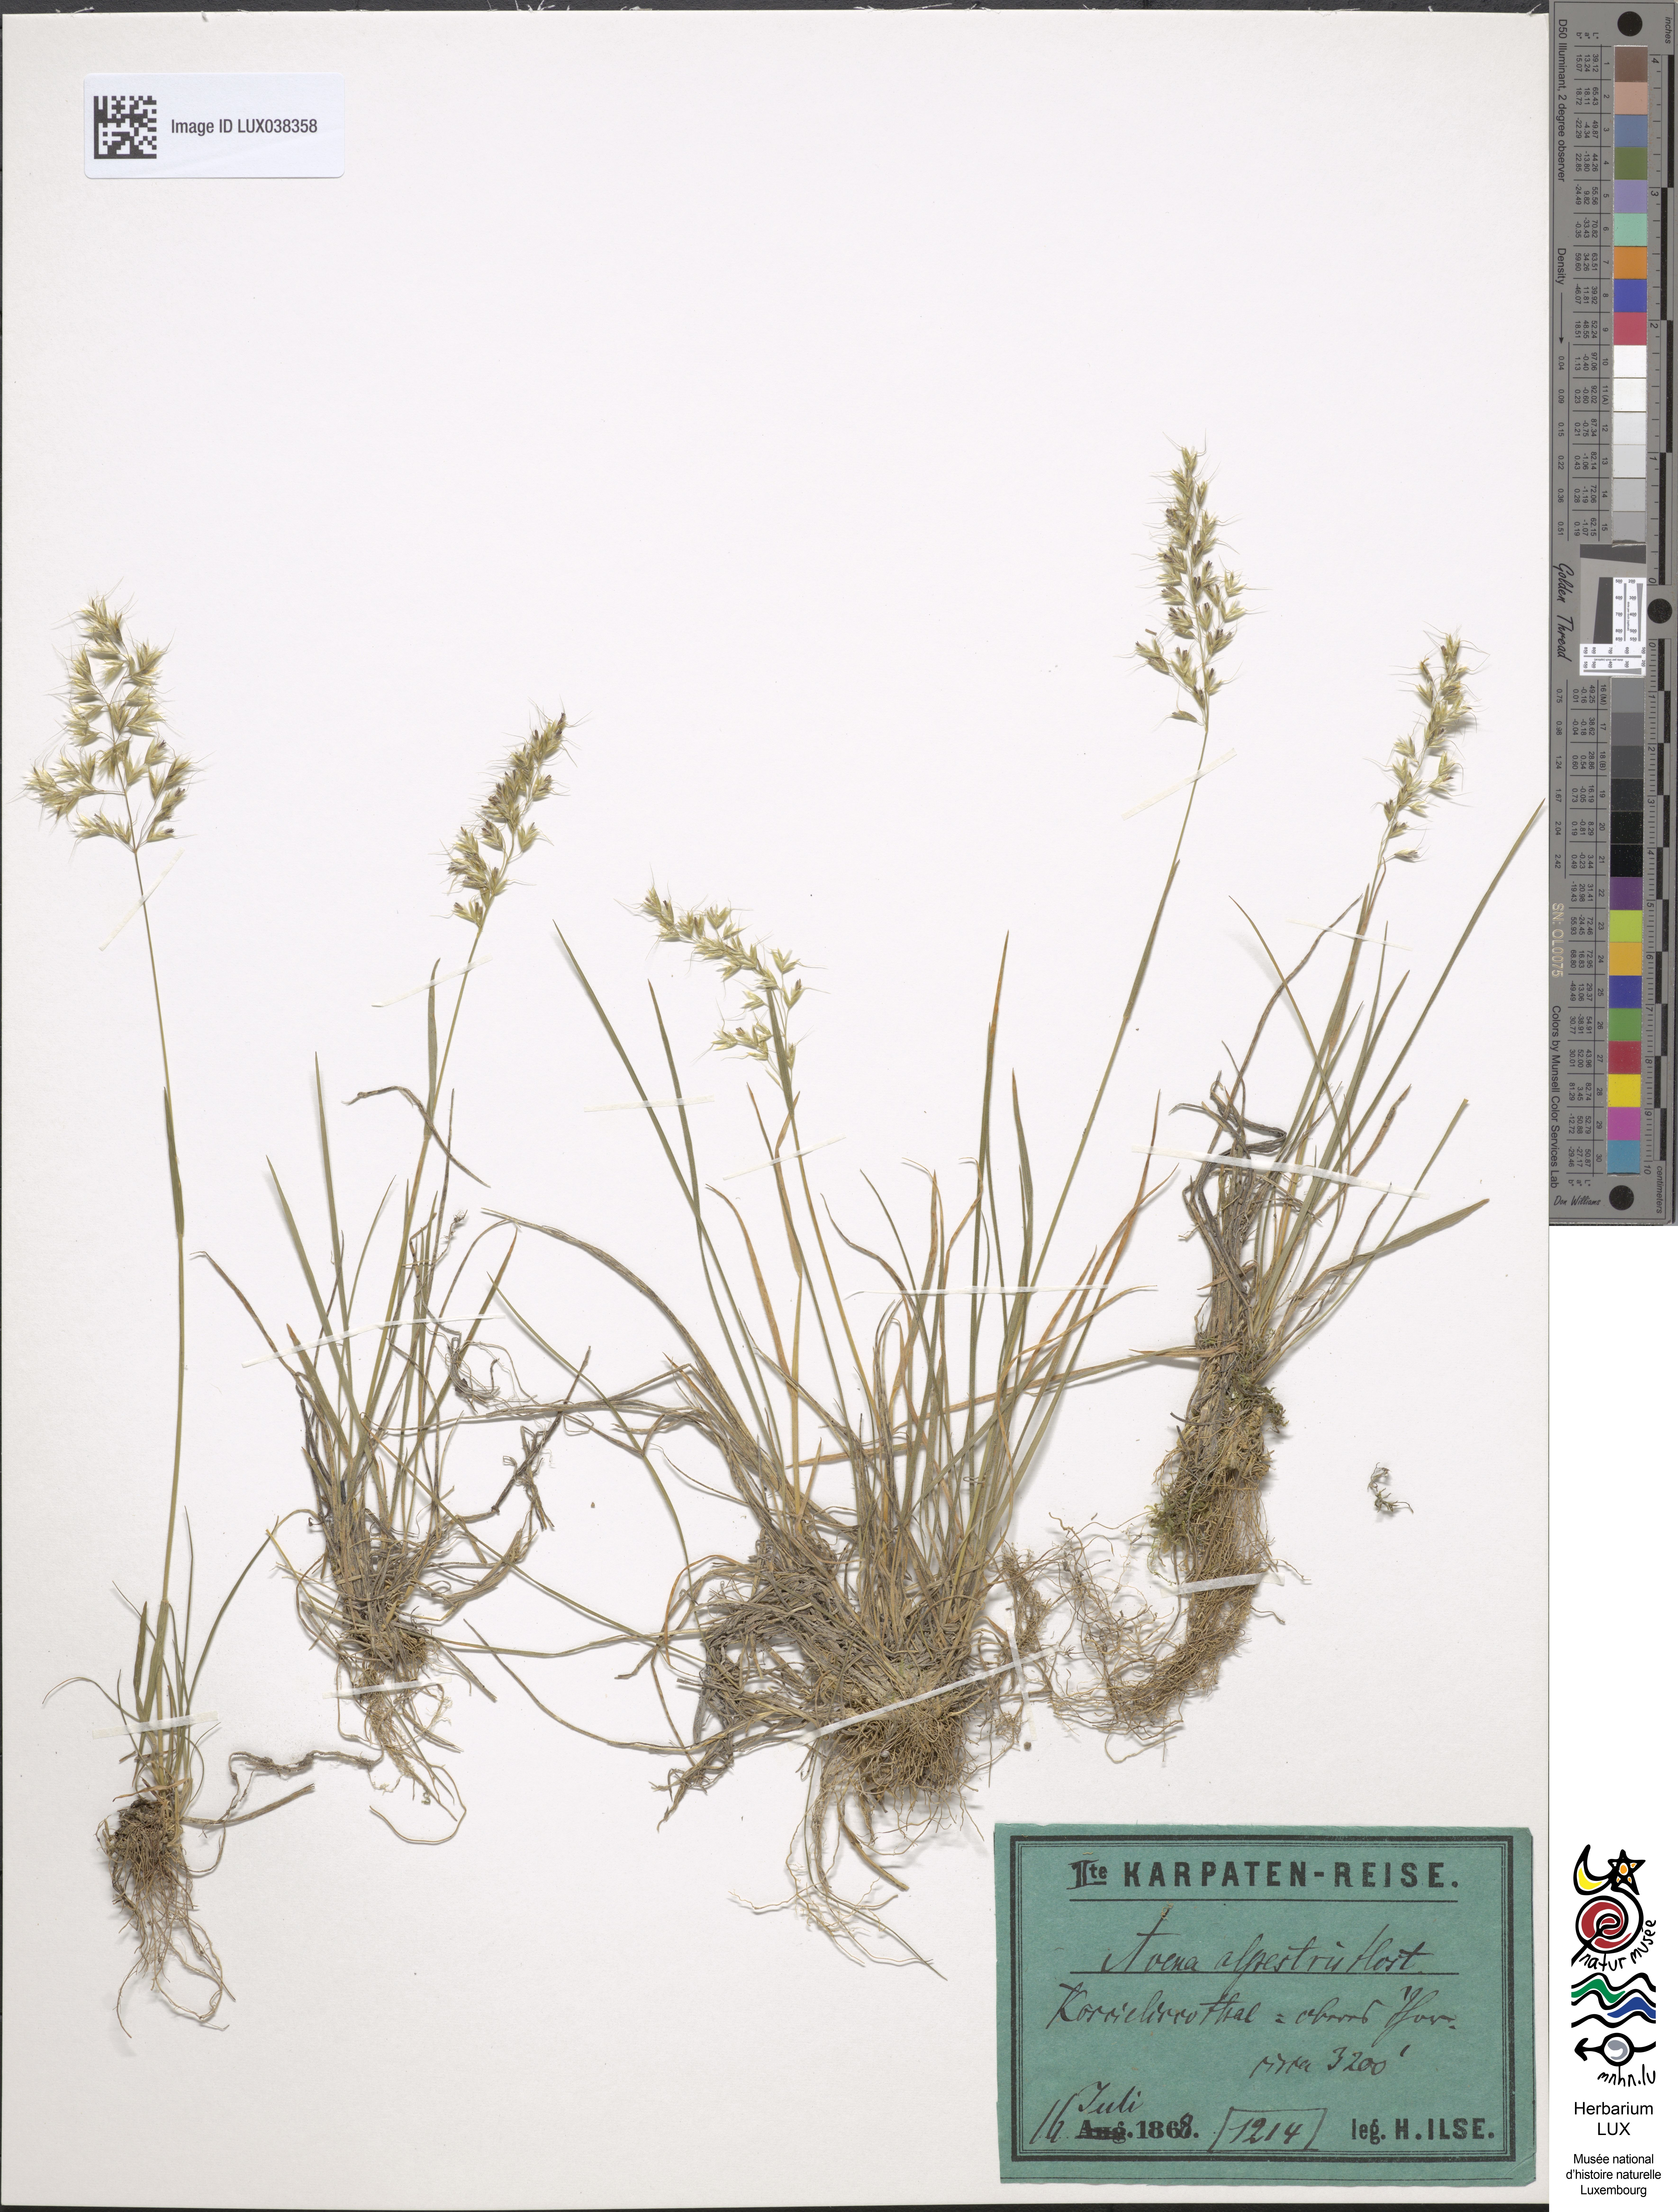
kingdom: Plantae
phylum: Tracheophyta
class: Liliopsida
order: Poales
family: Poaceae
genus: Trisetum
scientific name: Trisetum alpestre
